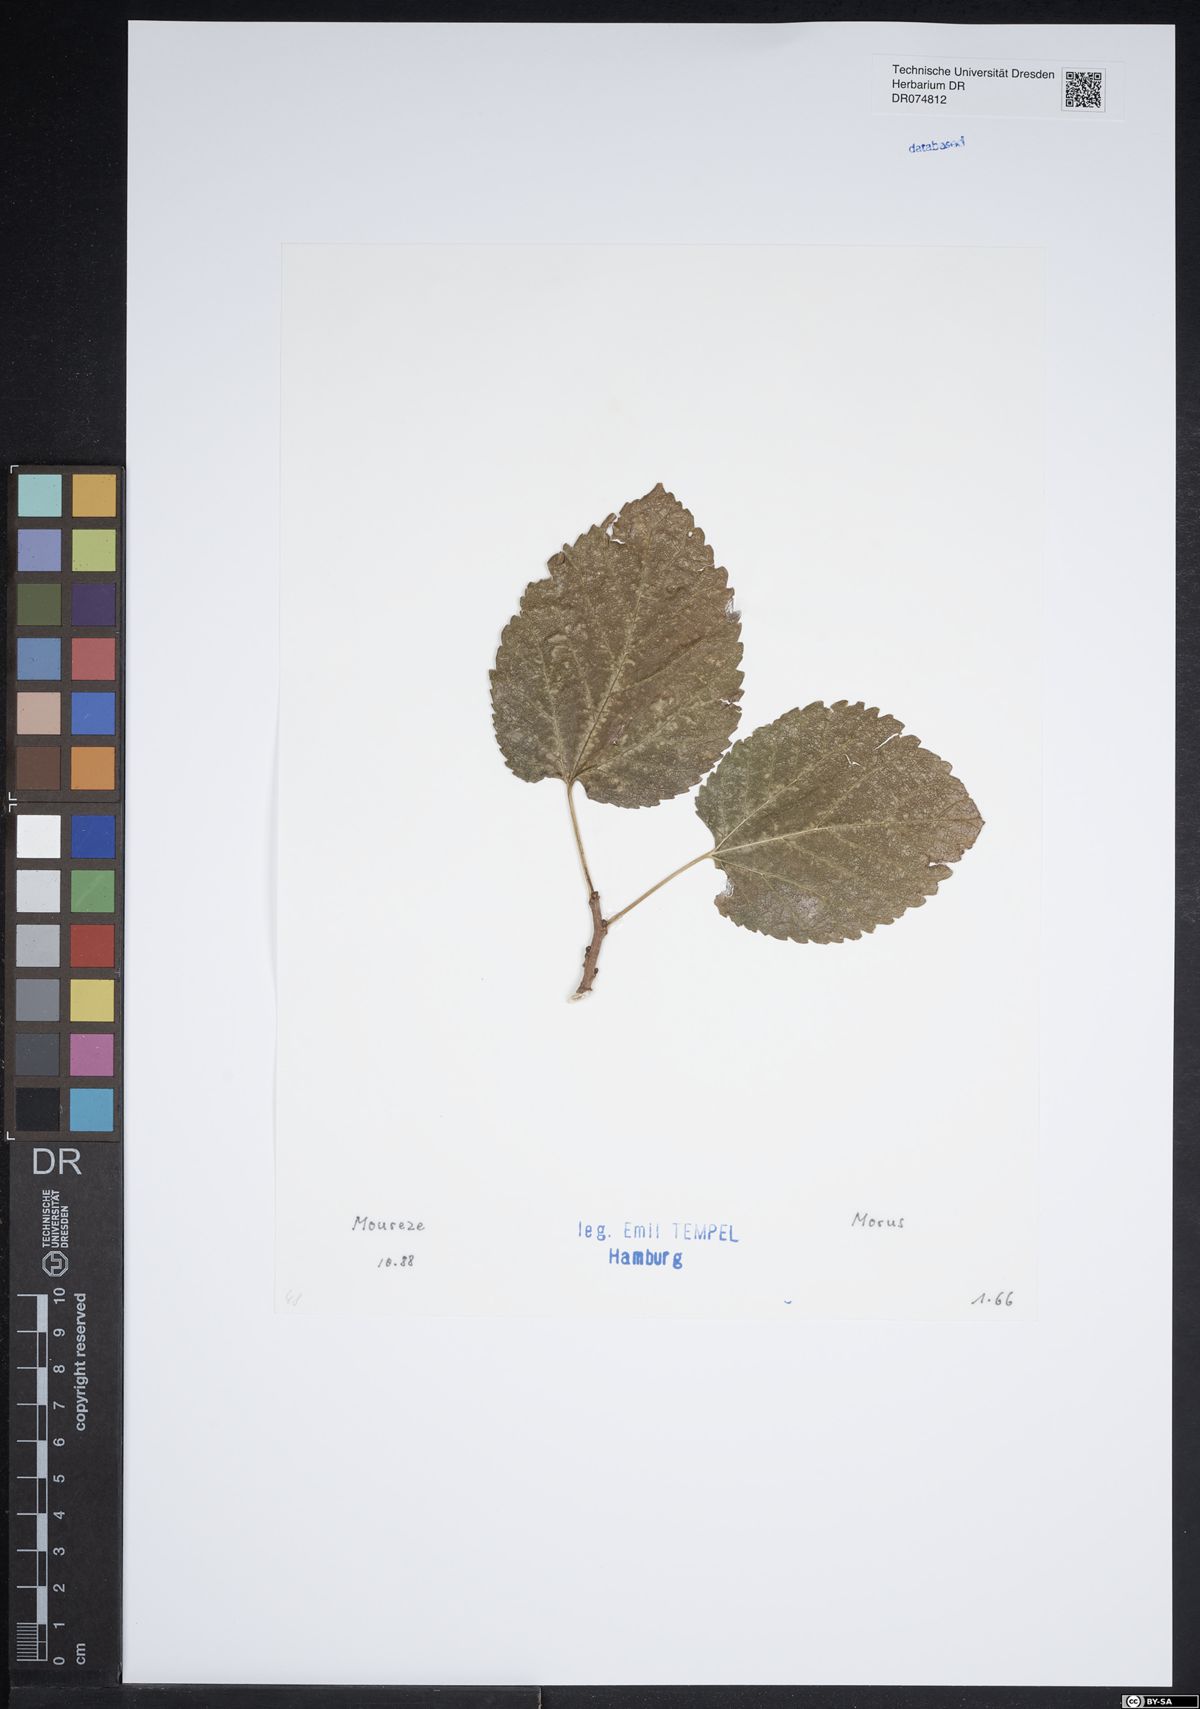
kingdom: Plantae
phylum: Tracheophyta
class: Magnoliopsida
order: Rosales
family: Moraceae
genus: Morus
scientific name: Morus
